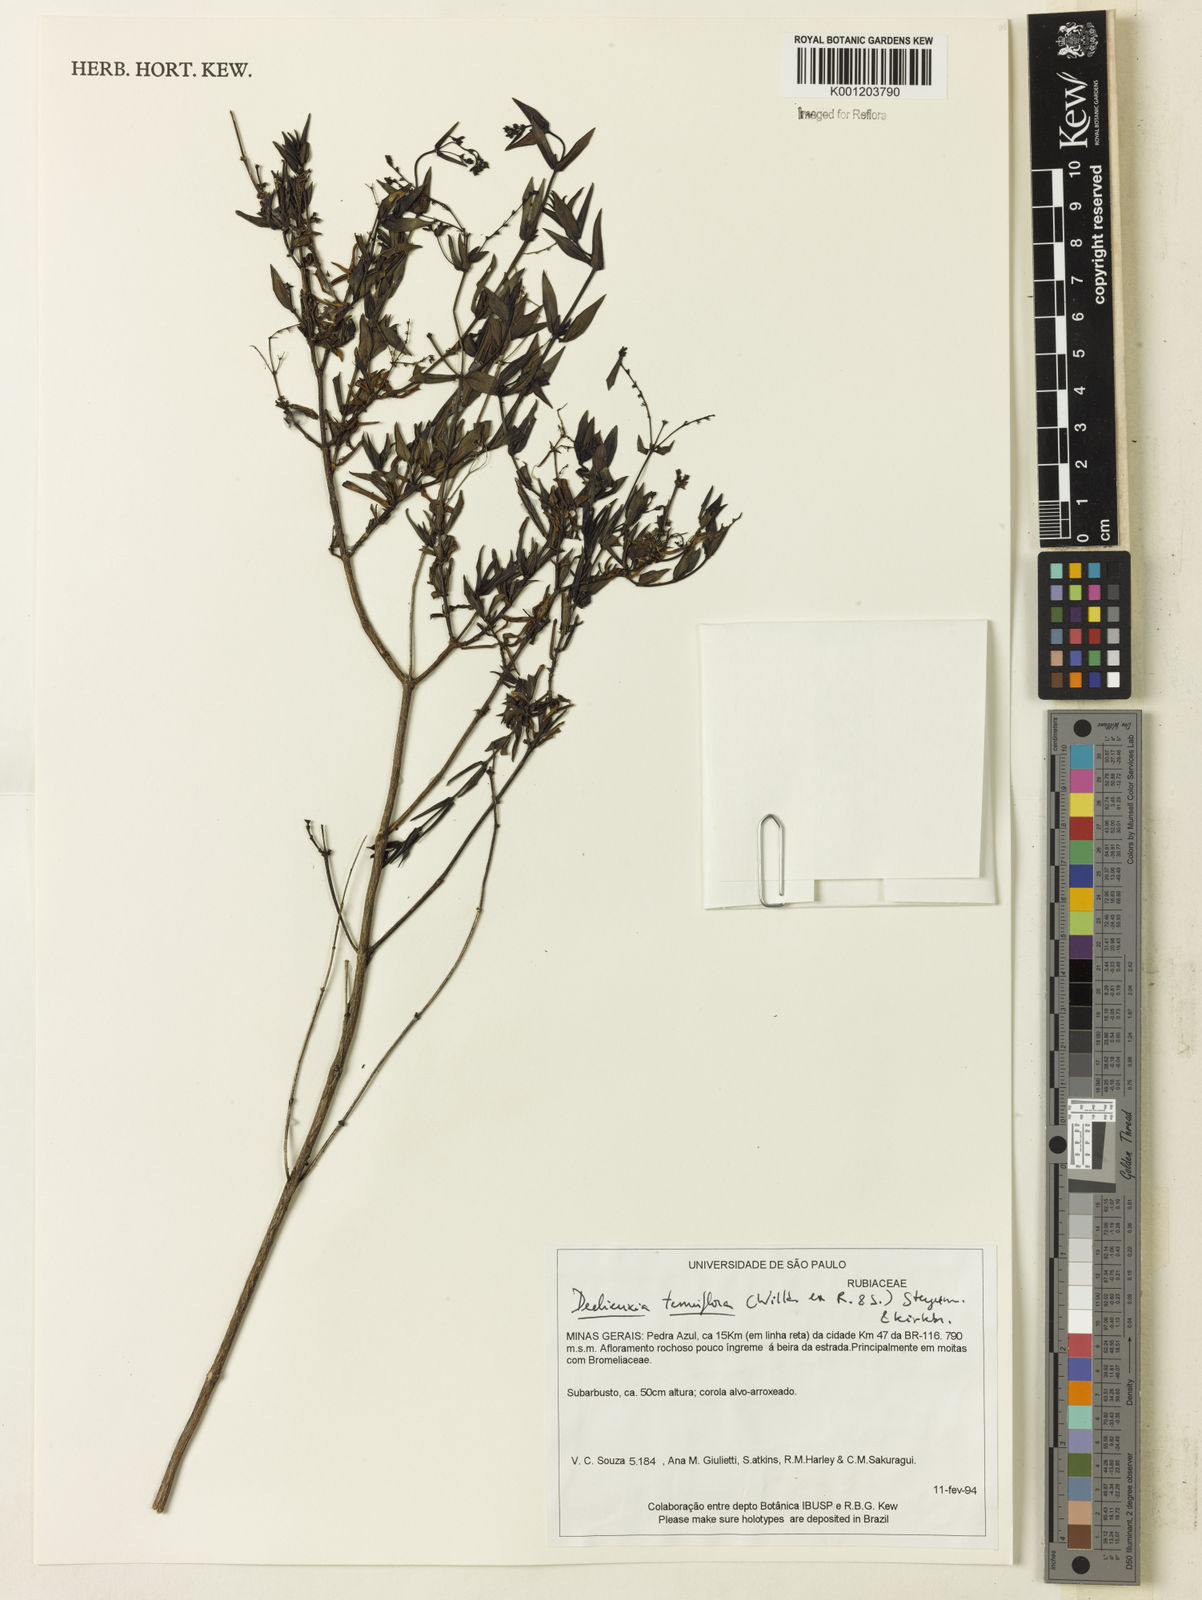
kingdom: Plantae
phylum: Tracheophyta
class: Magnoliopsida
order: Gentianales
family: Rubiaceae
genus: Declieuxia
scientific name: Declieuxia tenuiflora
